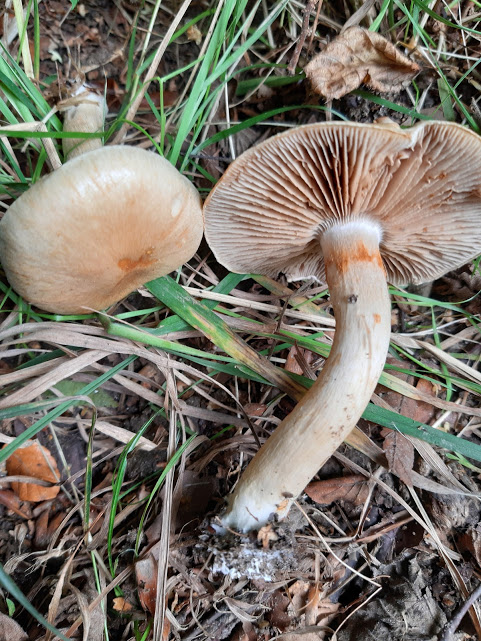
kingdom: Fungi
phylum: Basidiomycota
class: Agaricomycetes
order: Agaricales
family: Cortinariaceae
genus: Cortinarius
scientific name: Cortinarius
